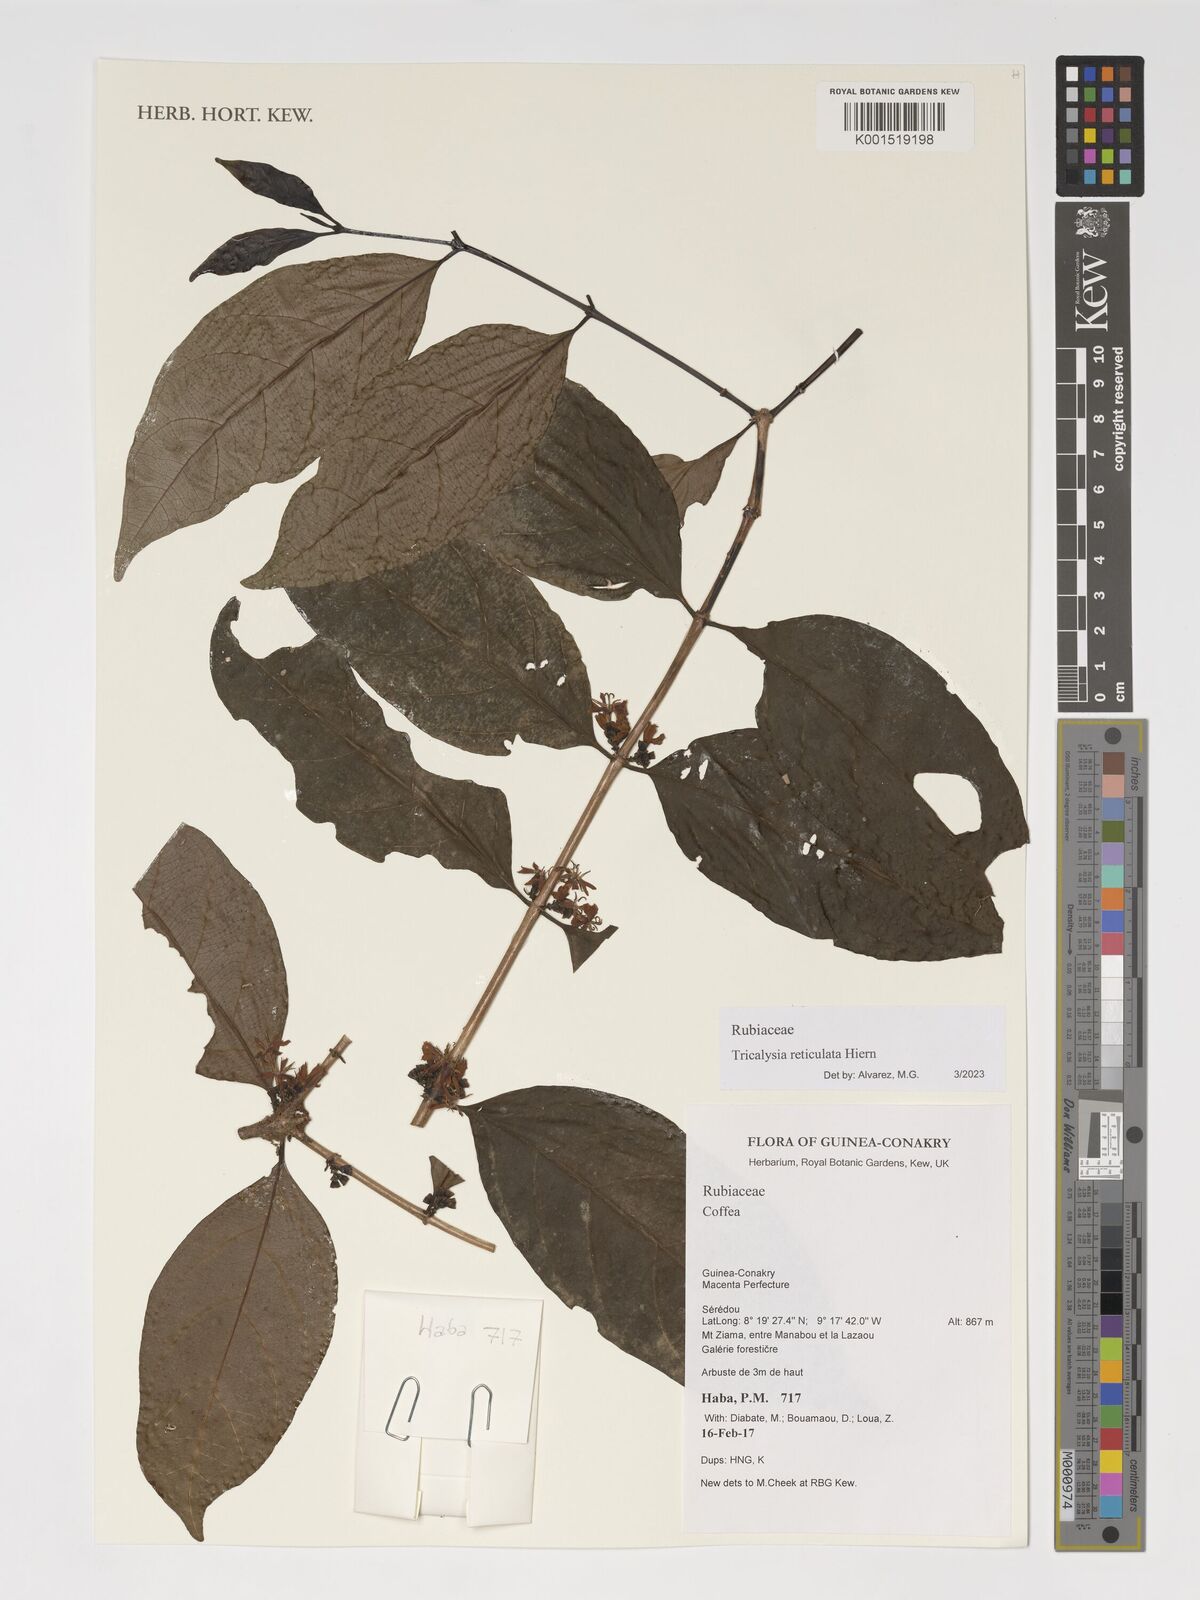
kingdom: Plantae
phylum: Tracheophyta
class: Magnoliopsida
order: Gentianales
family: Rubiaceae
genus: Tricalysia
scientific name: Tricalysia reticulata
